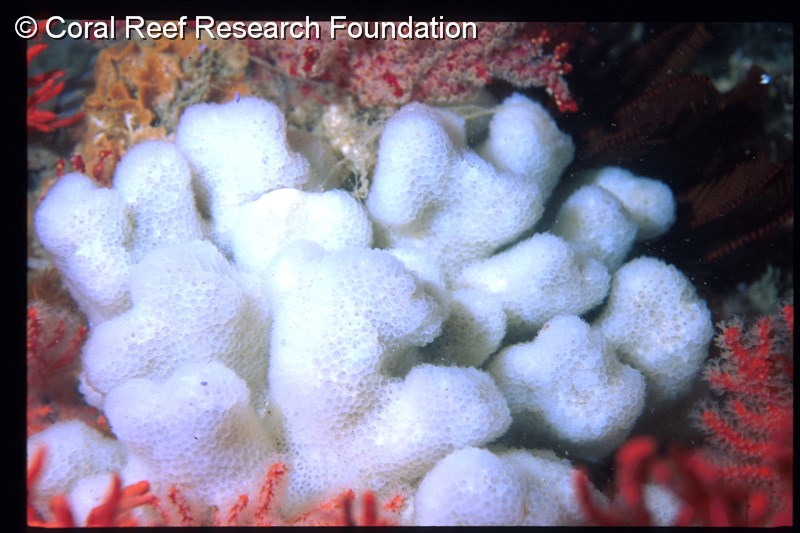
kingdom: Animalia
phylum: Chordata
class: Ascidiacea
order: Aplousobranchia
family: Pseudodistomidae
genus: Pseudodistoma
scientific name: Pseudodistoma
